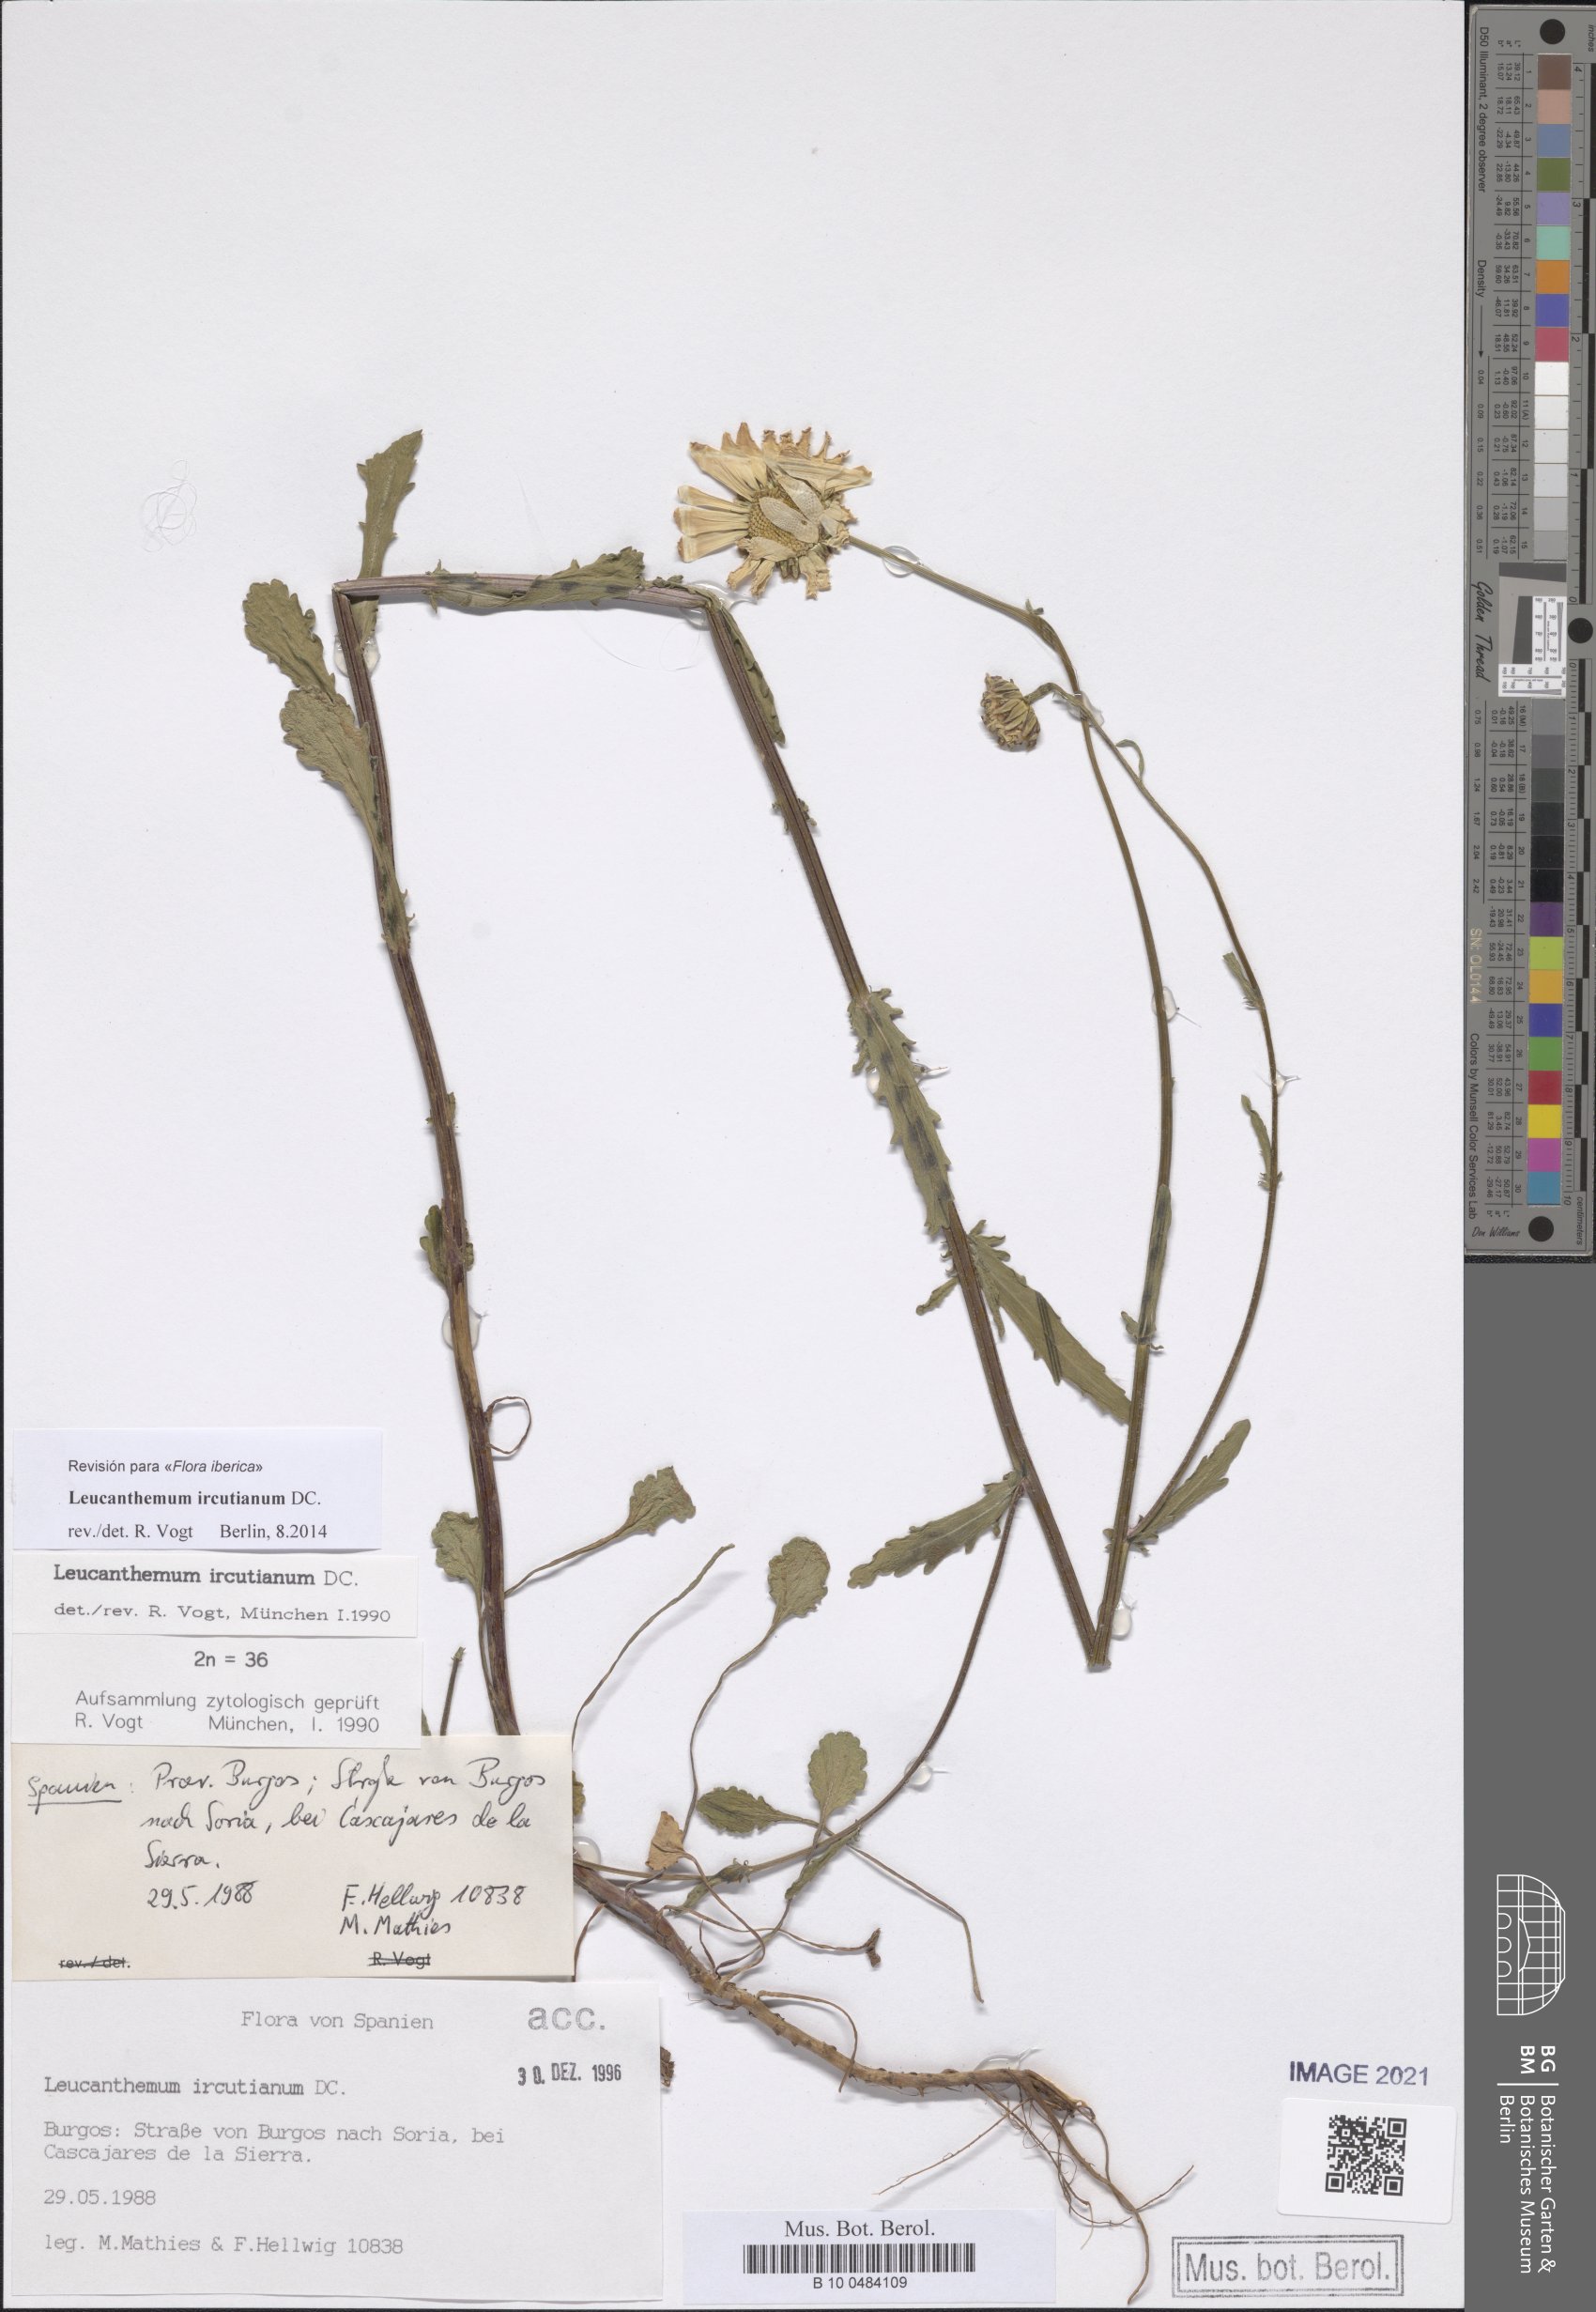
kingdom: Plantae
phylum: Tracheophyta
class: Magnoliopsida
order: Asterales
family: Asteraceae
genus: Leucanthemum
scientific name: Leucanthemum ircutianum
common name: Daisy
